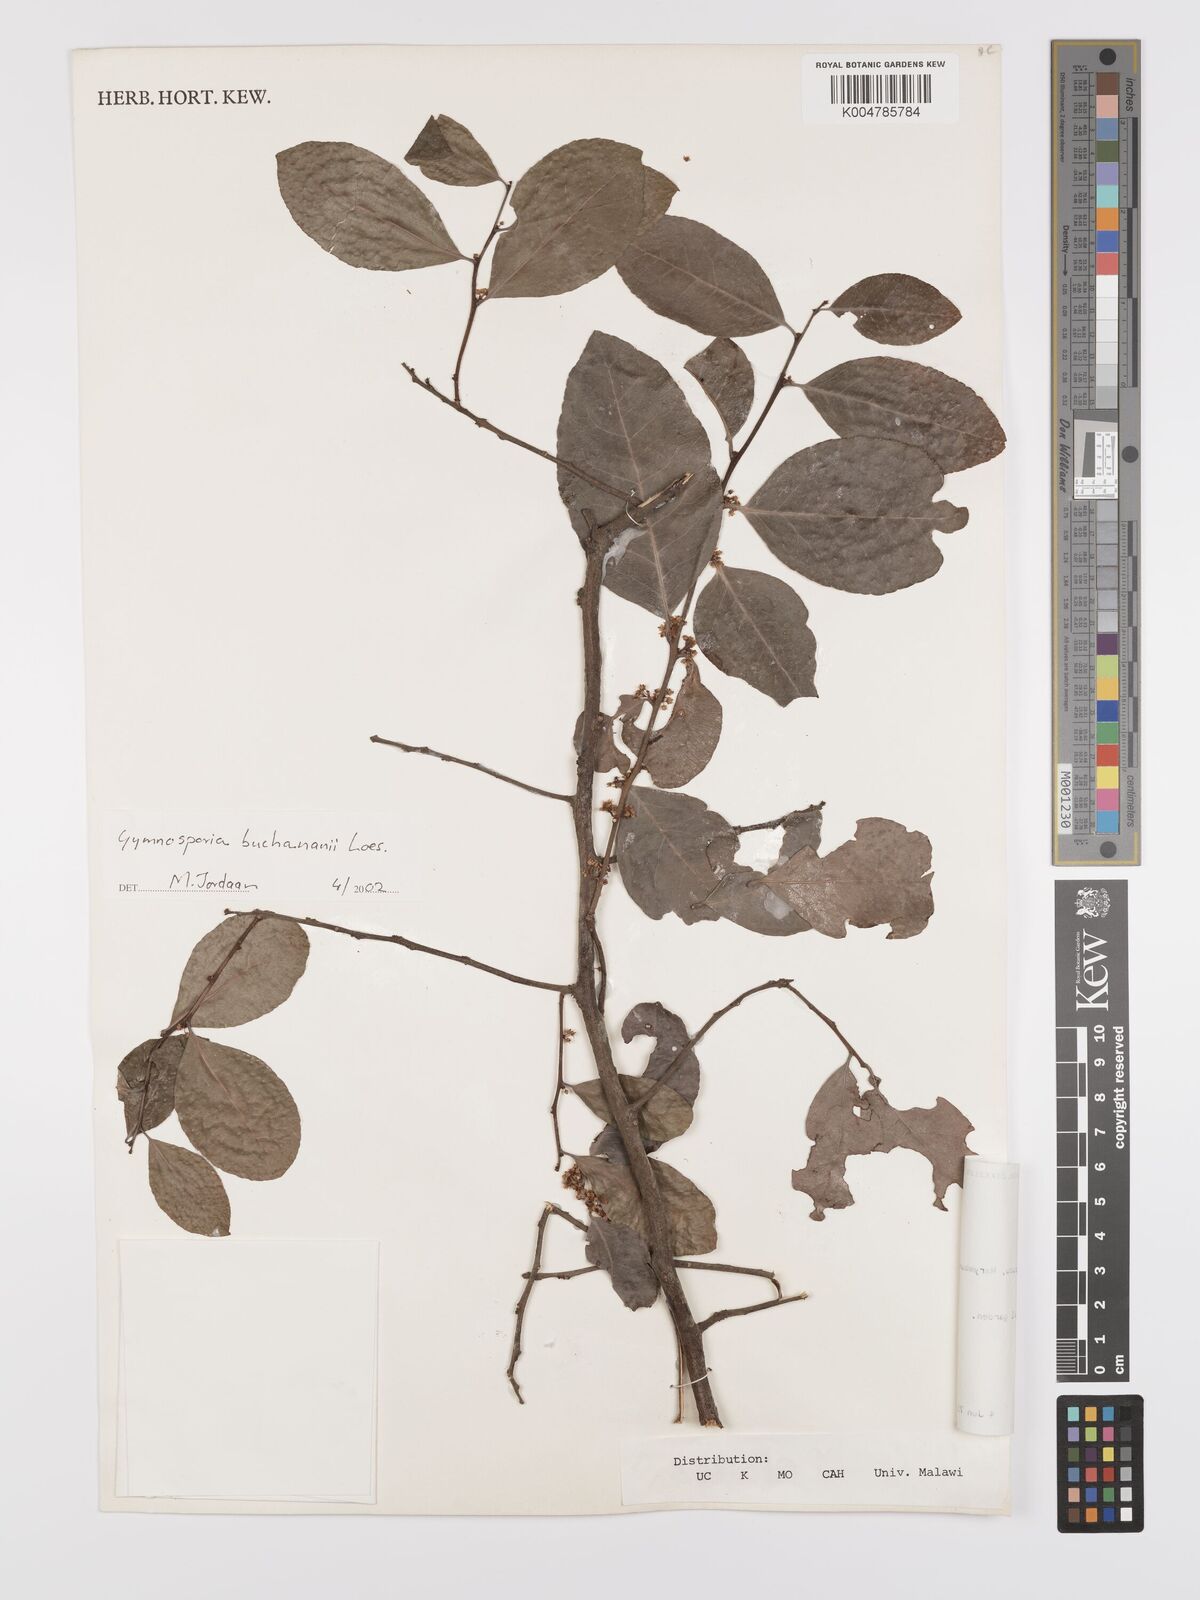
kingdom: Plantae
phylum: Tracheophyta
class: Magnoliopsida
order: Celastrales
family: Celastraceae
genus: Gymnosporia
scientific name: Gymnosporia buchananii
